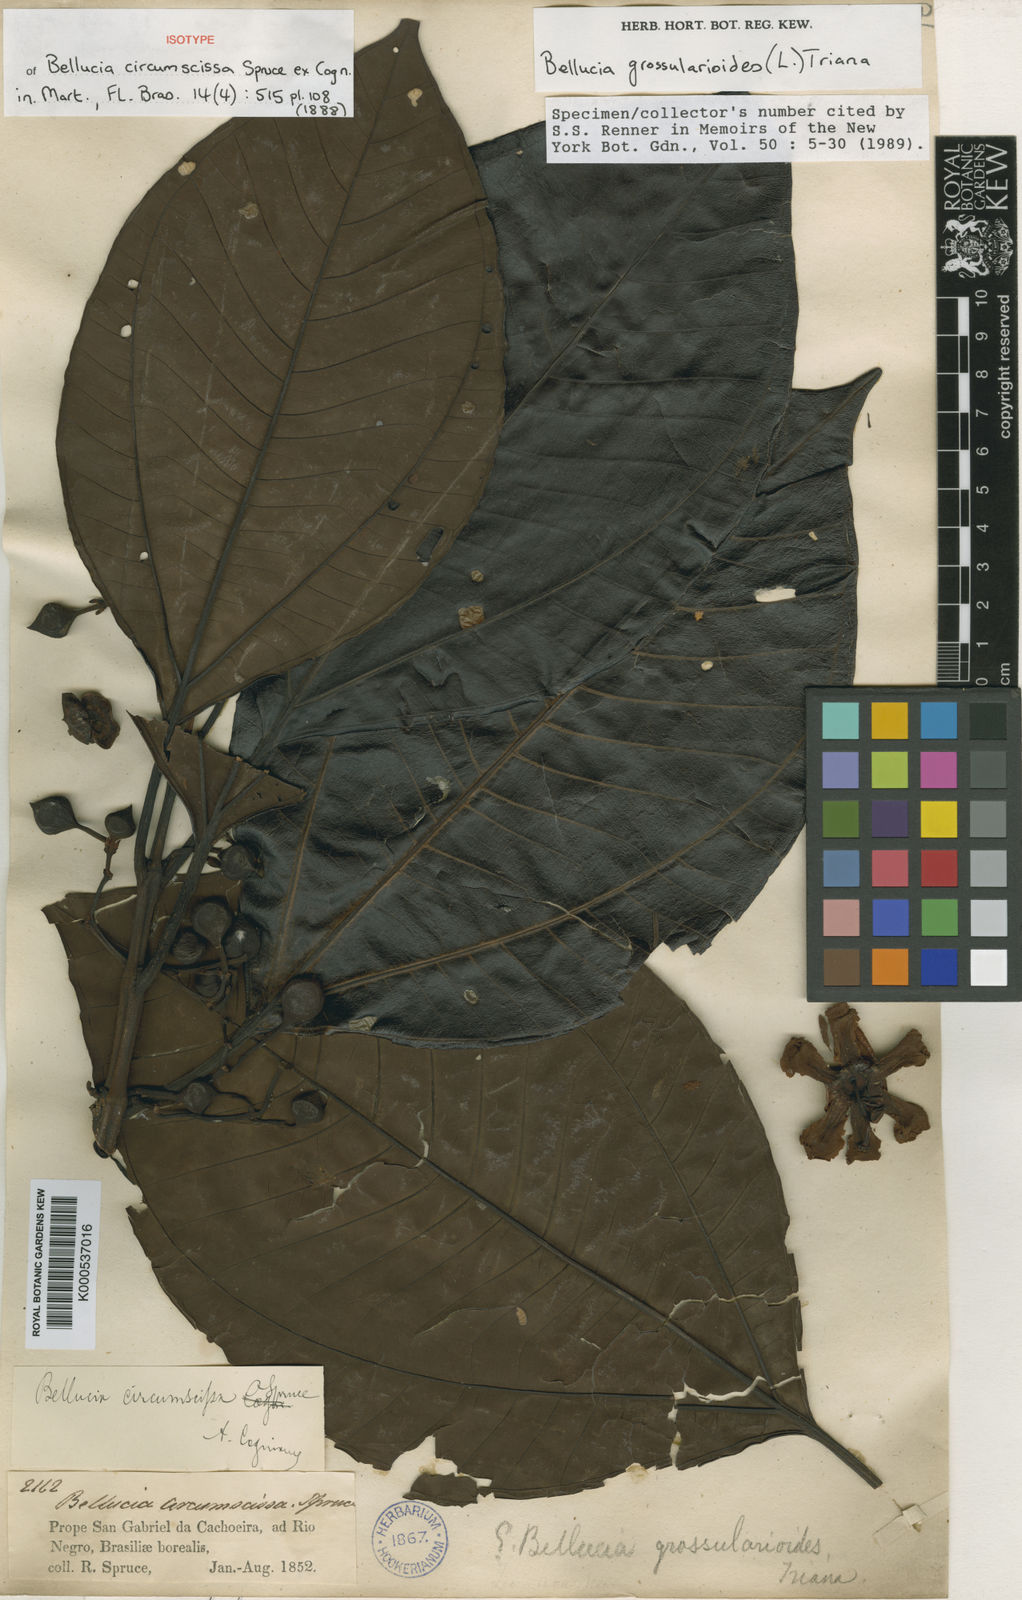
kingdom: Plantae
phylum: Tracheophyta
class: Magnoliopsida
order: Myrtales
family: Melastomataceae
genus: Bellucia
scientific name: Bellucia grossularioides
